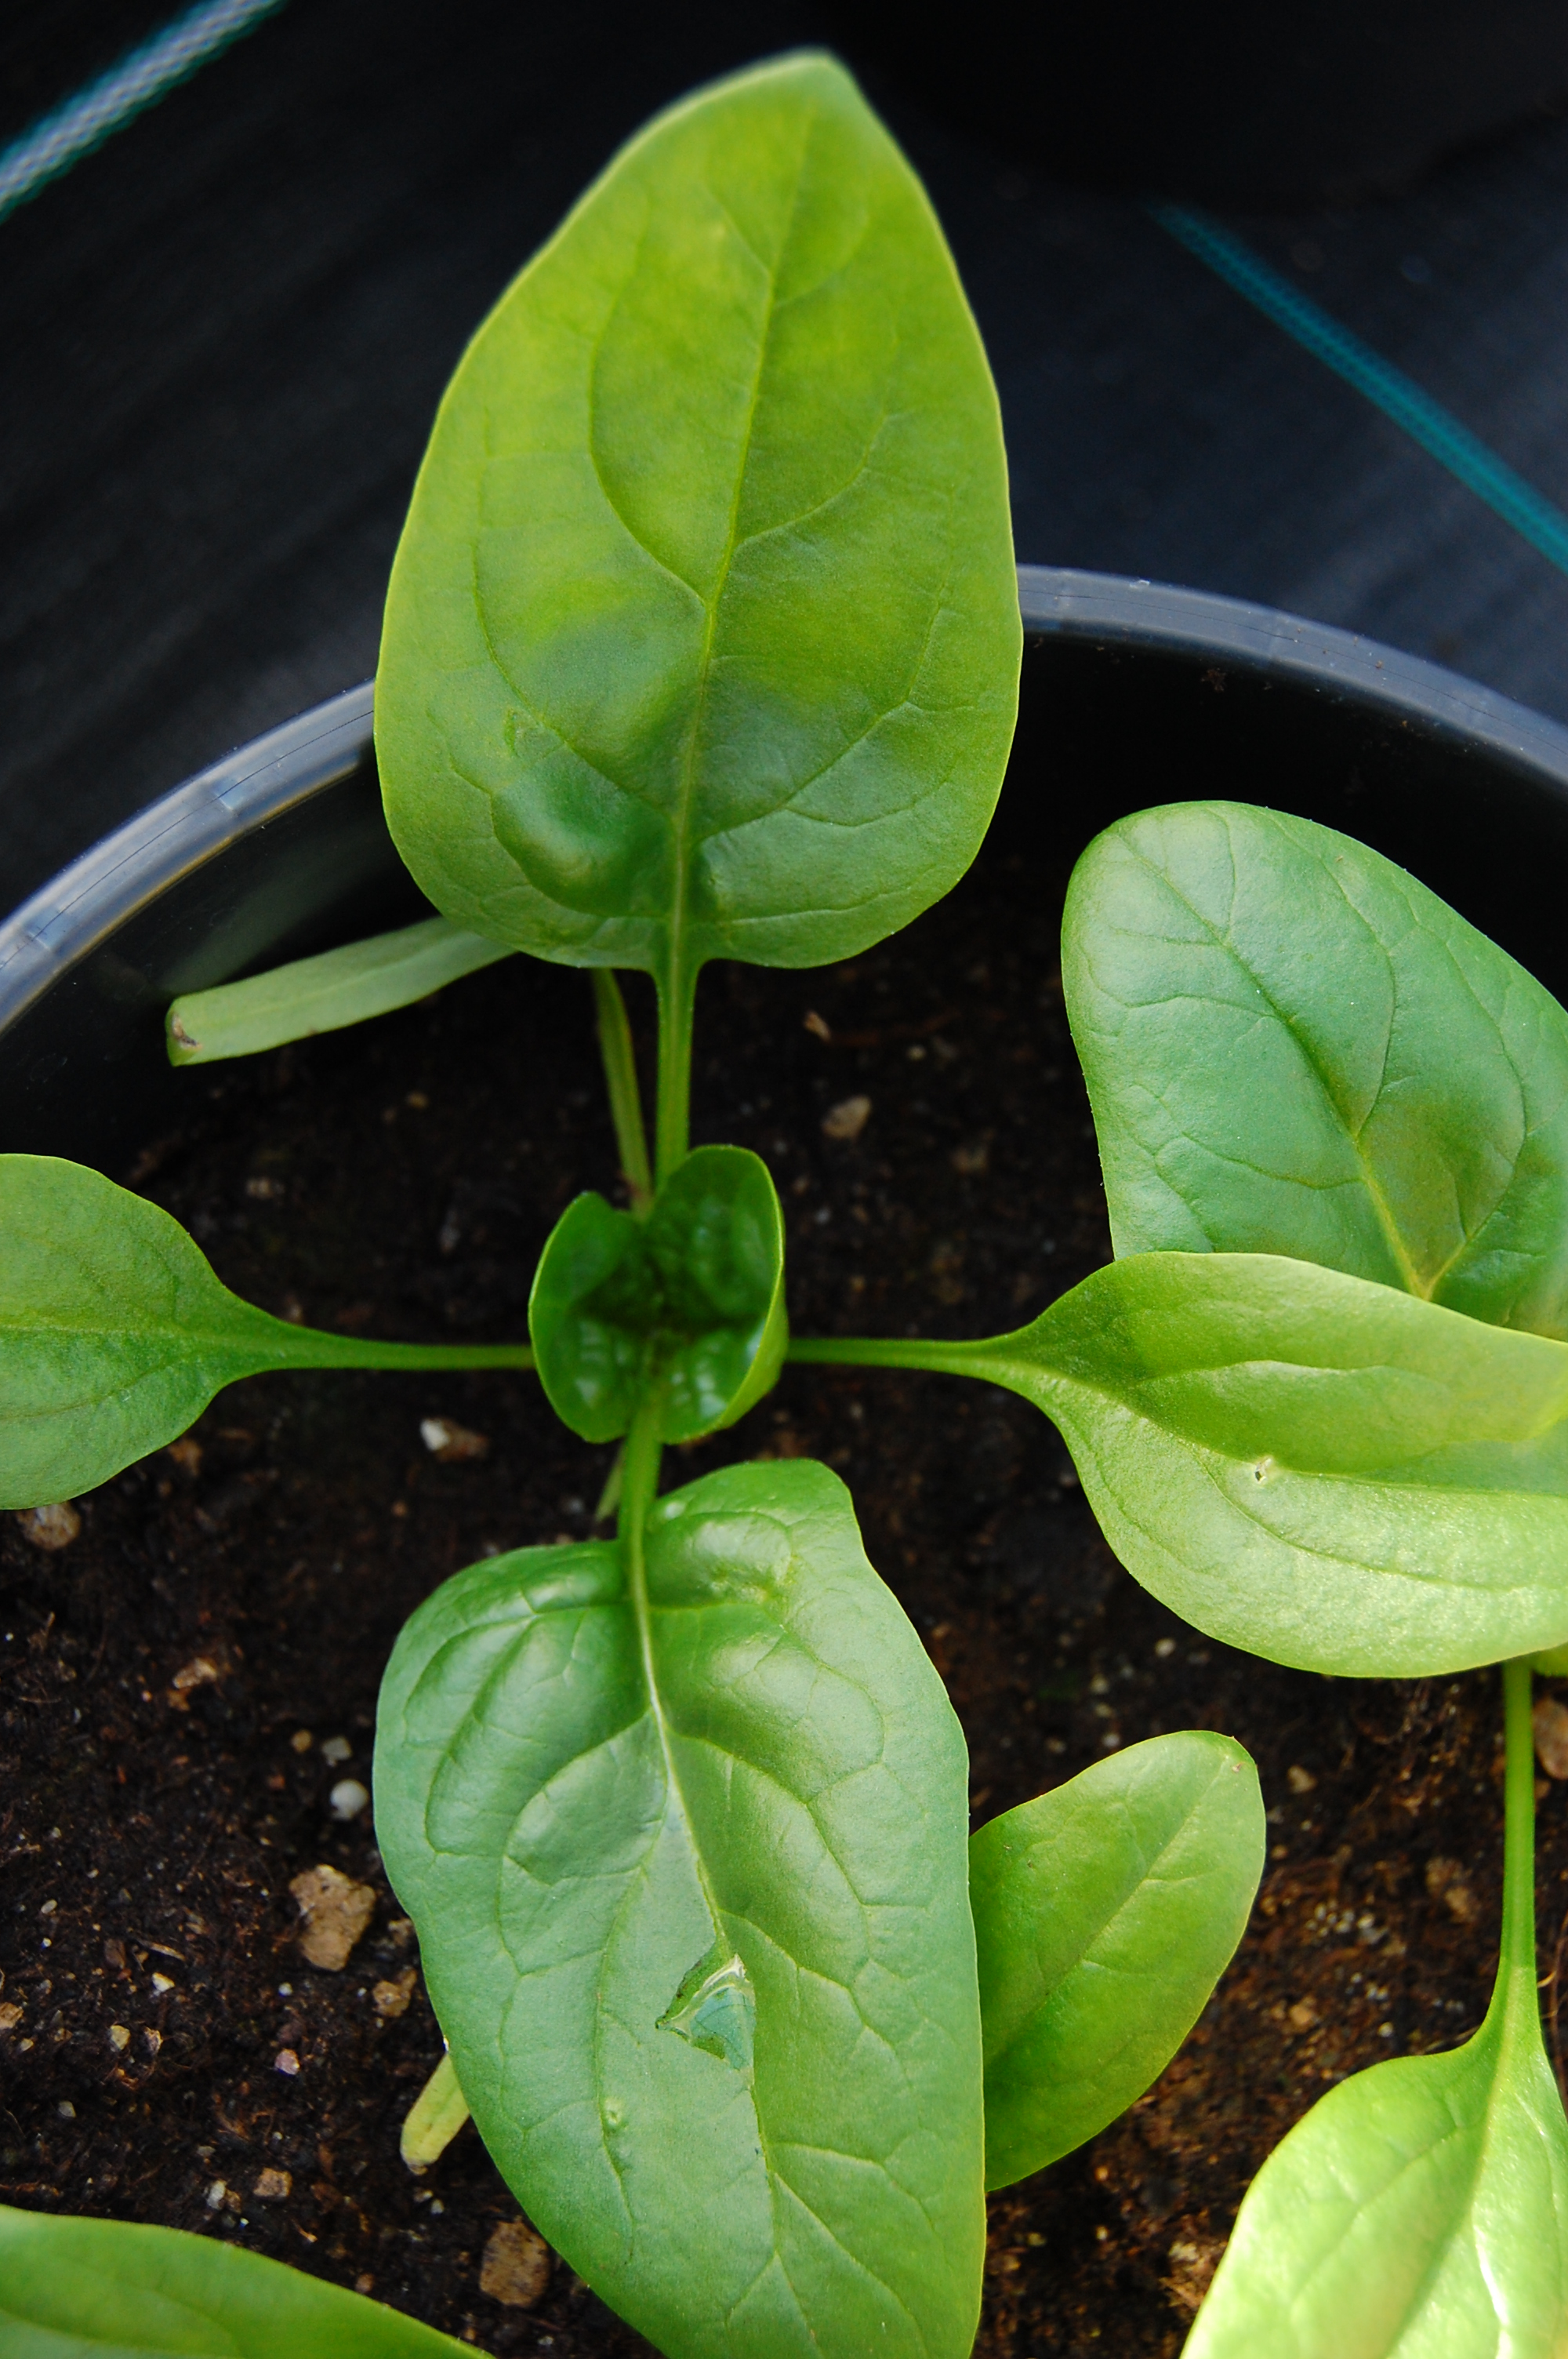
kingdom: Plantae
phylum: Tracheophyta
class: Magnoliopsida
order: Caryophyllales
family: Amaranthaceae
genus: Spinacia
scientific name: Spinacia oleracea
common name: Spinach
